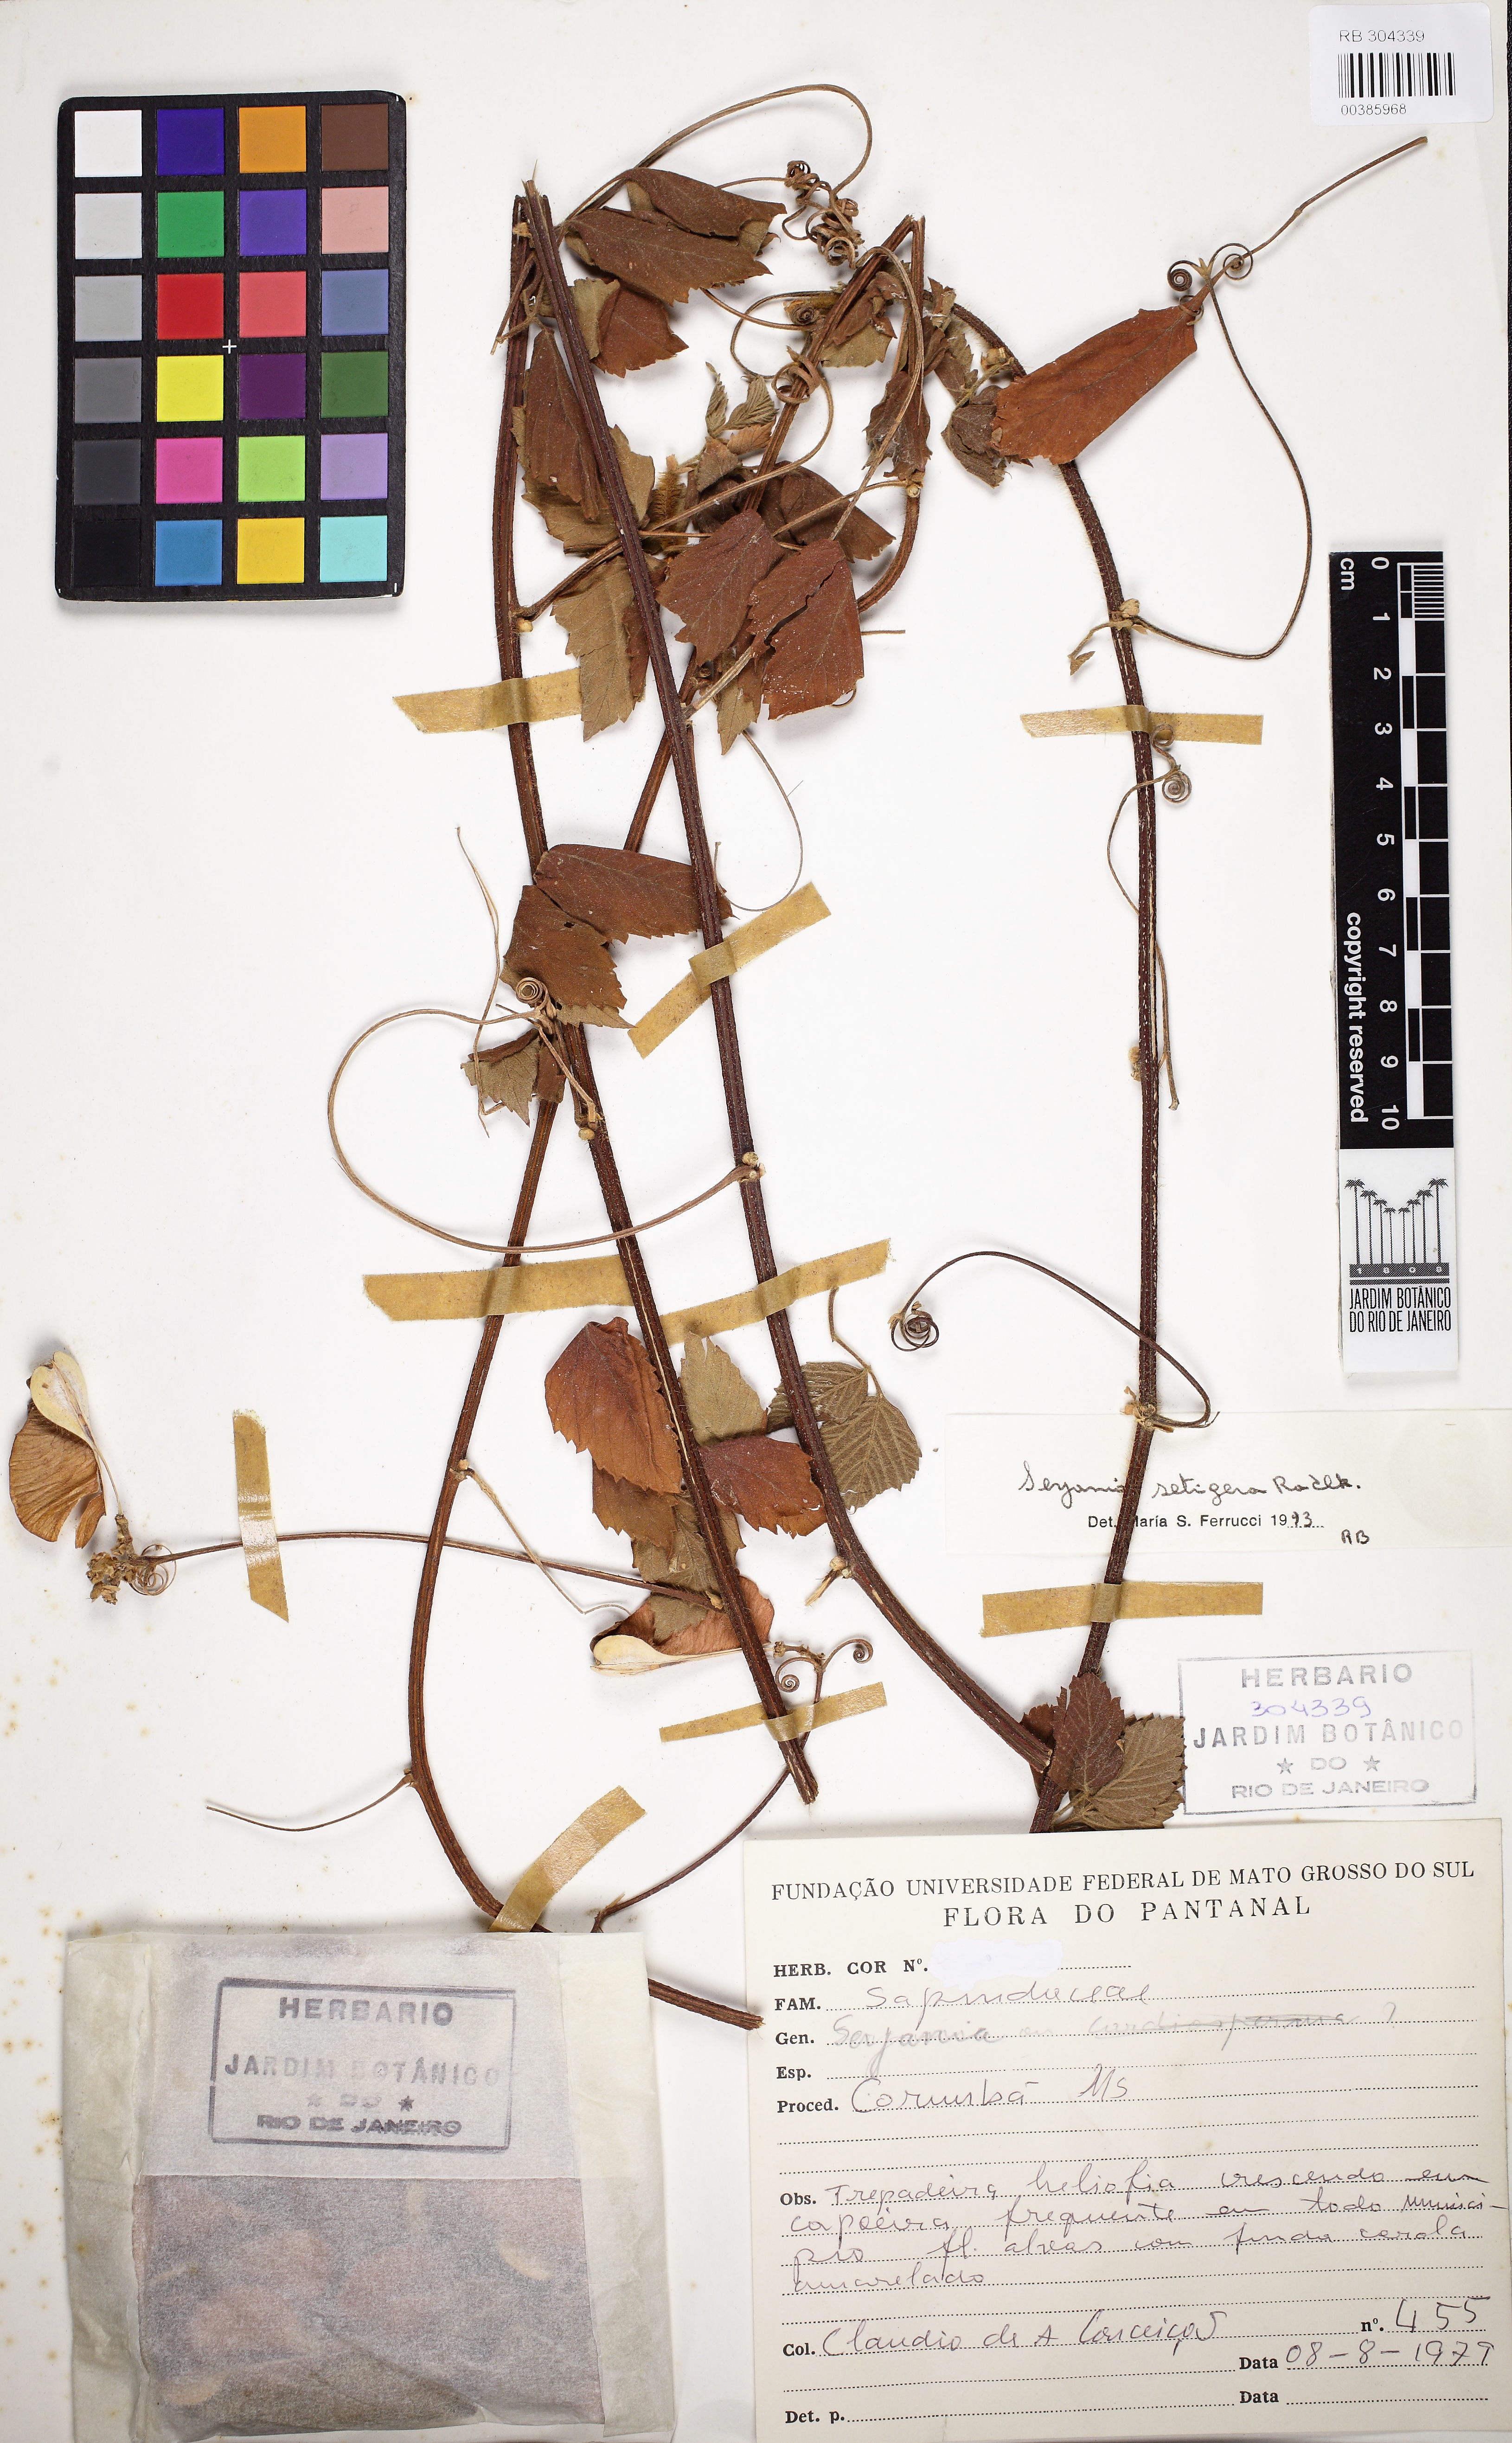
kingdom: Plantae
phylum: Tracheophyta
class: Magnoliopsida
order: Sapindales
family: Sapindaceae
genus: Serjania
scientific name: Serjania setigera
